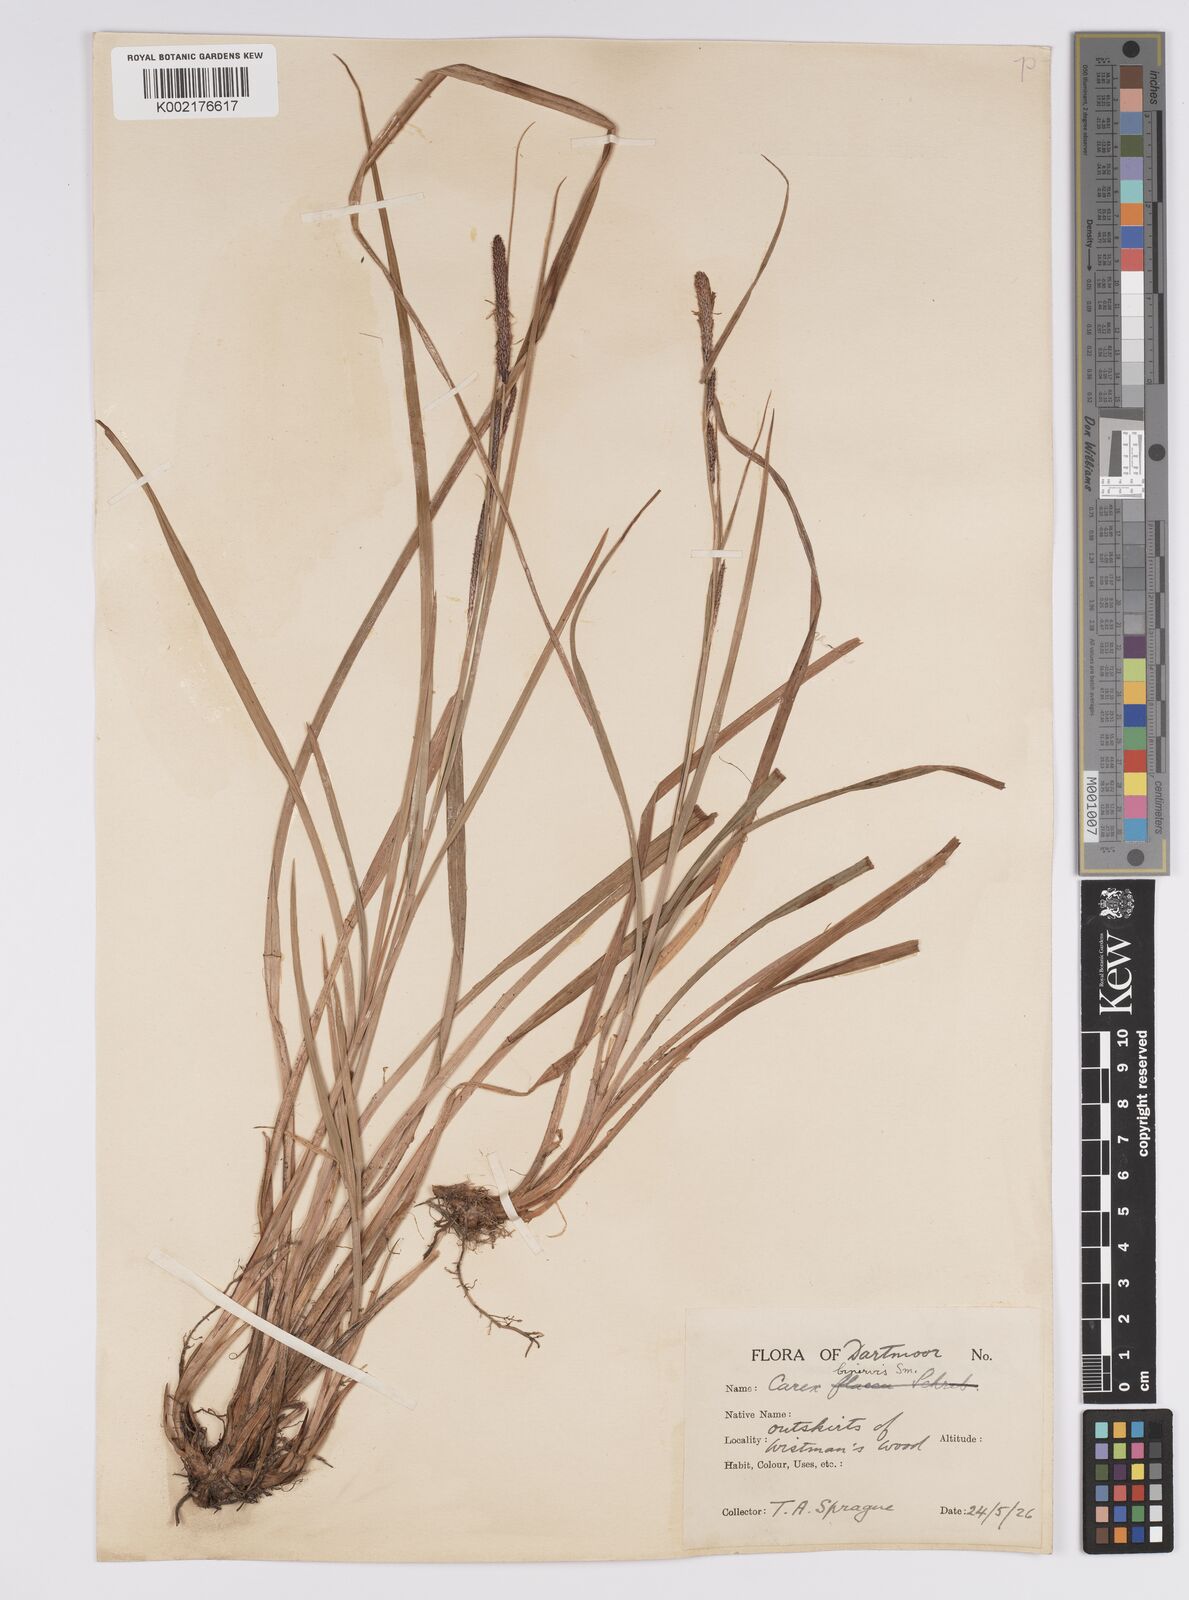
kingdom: Plantae
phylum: Tracheophyta
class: Liliopsida
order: Poales
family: Cyperaceae
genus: Carex
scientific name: Carex binervis
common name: Green-ribbed sedge
